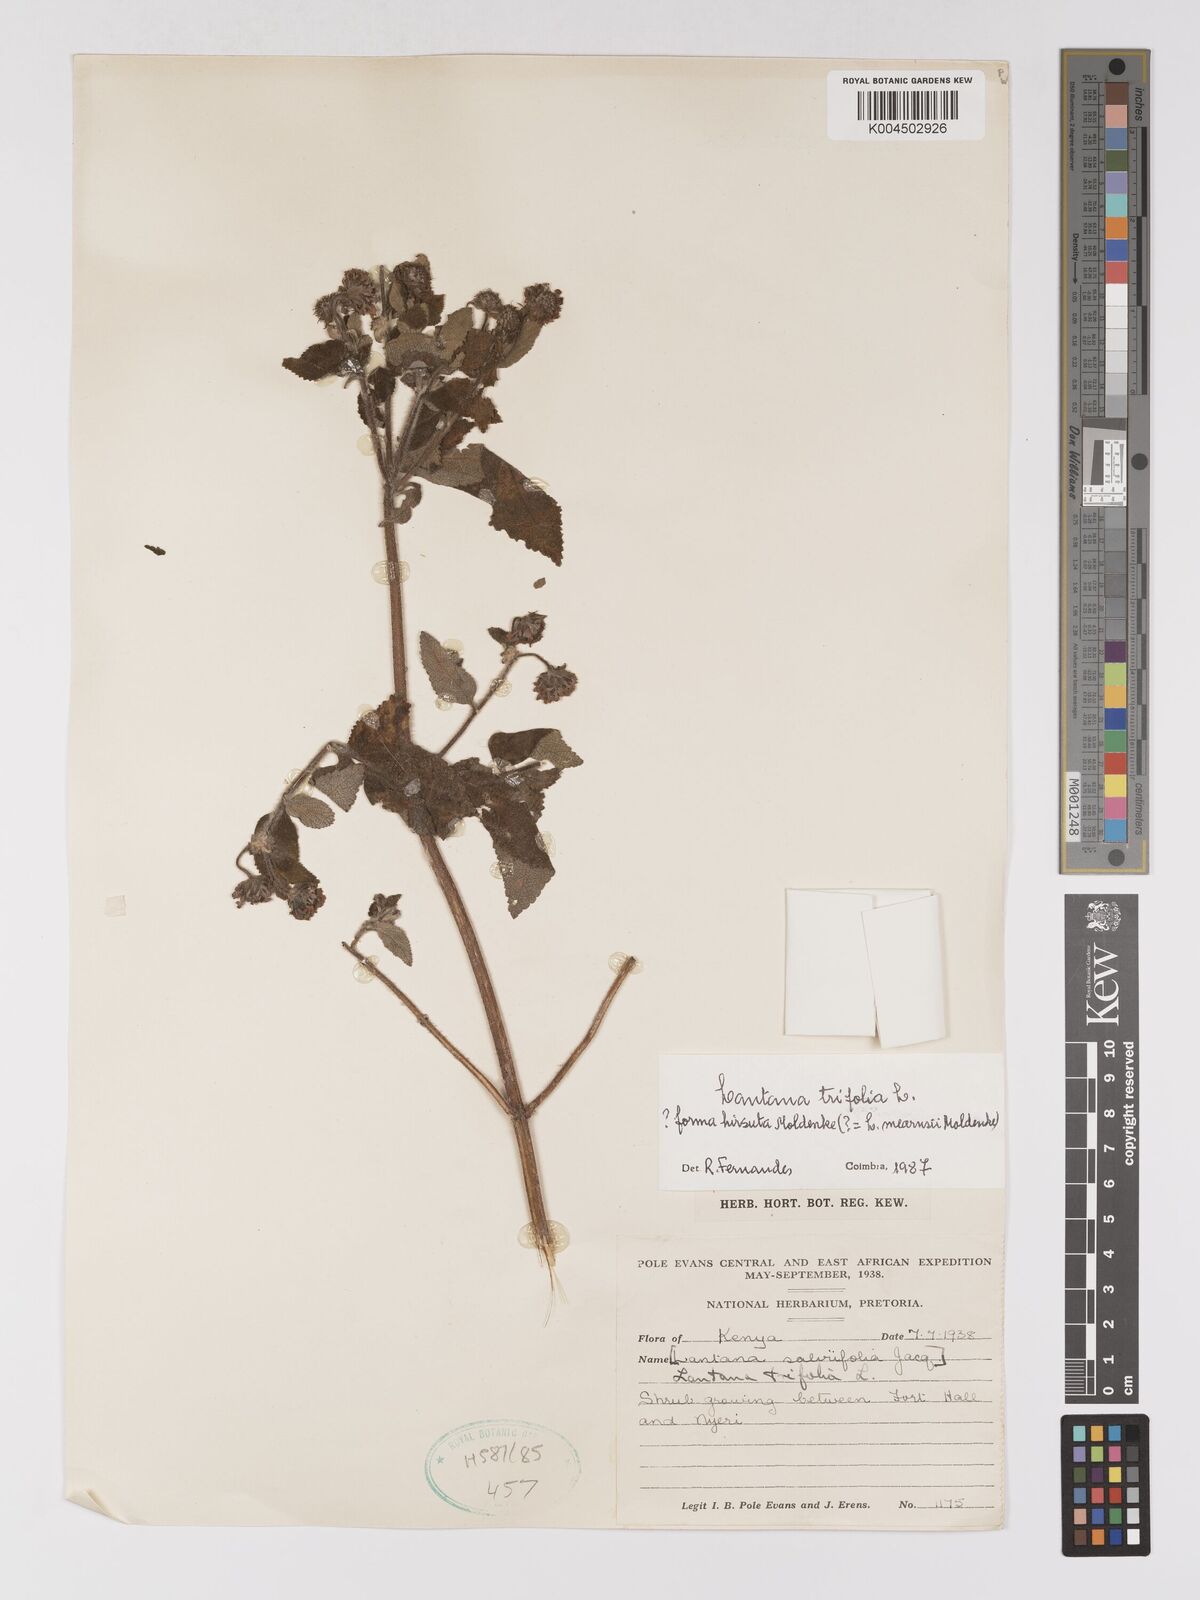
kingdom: Plantae
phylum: Tracheophyta
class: Magnoliopsida
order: Lamiales
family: Verbenaceae
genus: Lantana
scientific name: Lantana trifolia
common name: Sweet-sage
